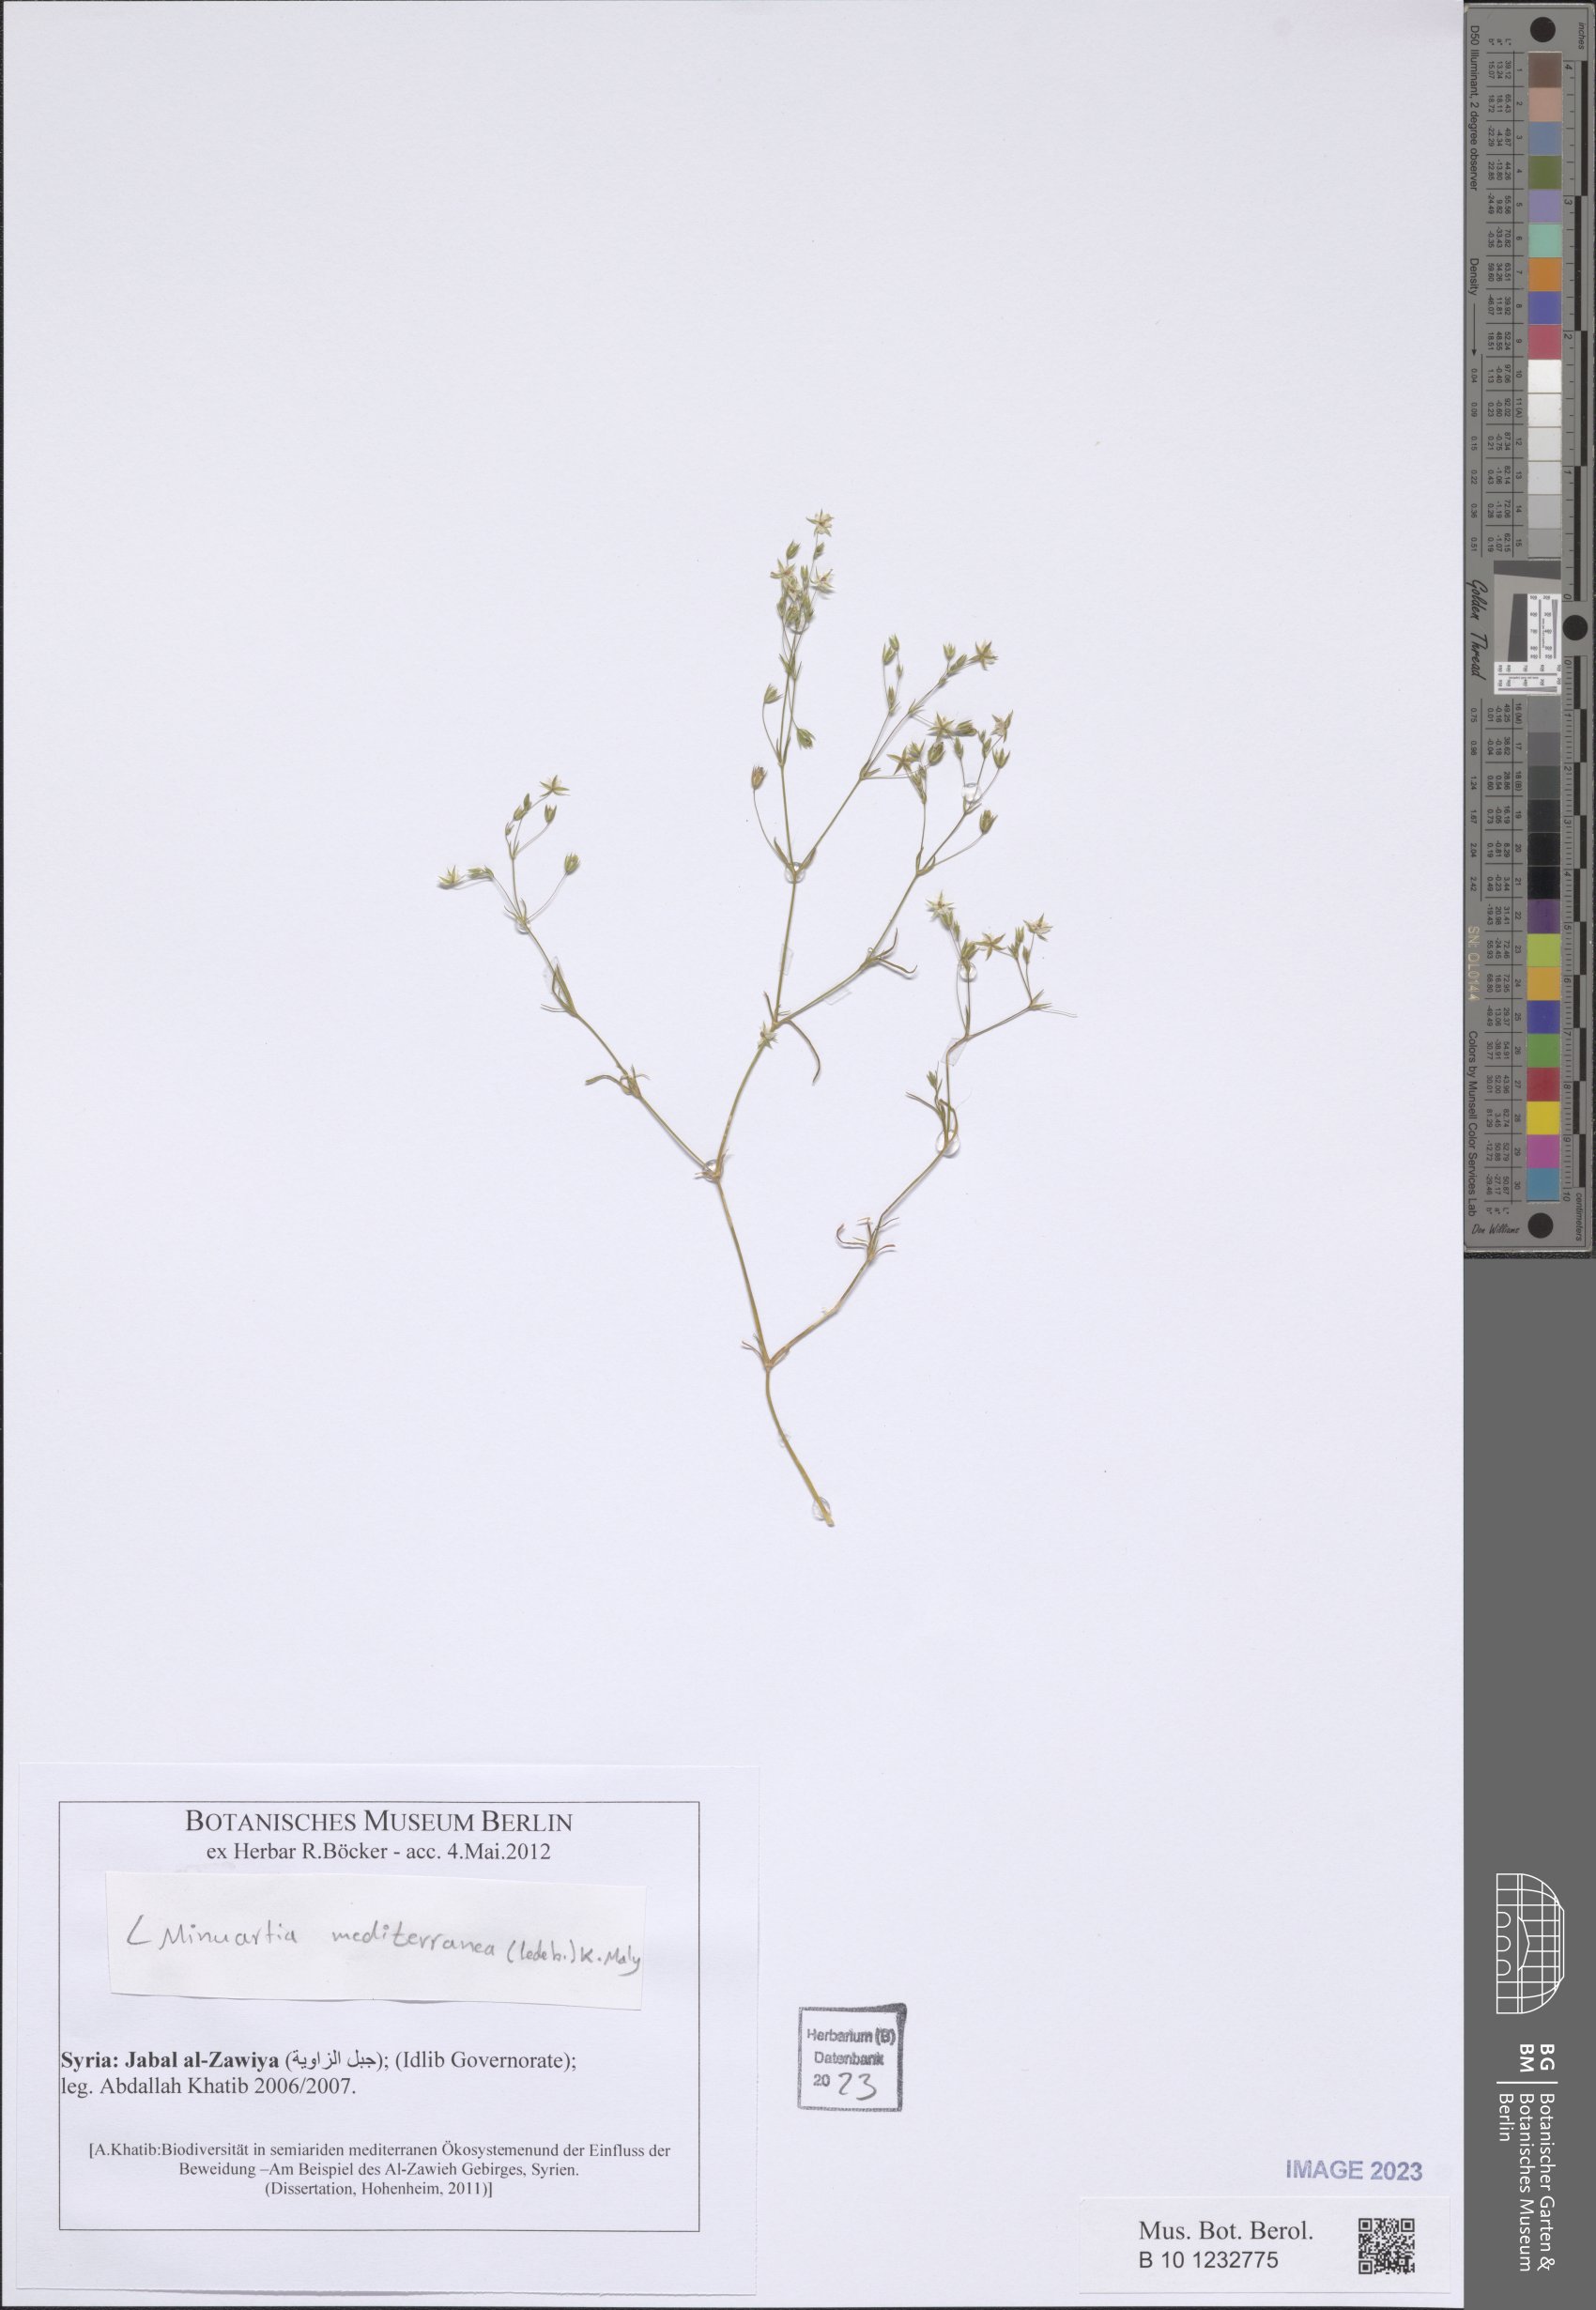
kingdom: Plantae
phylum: Tracheophyta
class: Magnoliopsida
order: Caryophyllales
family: Caryophyllaceae
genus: Sabulina
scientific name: Sabulina mediterranea
